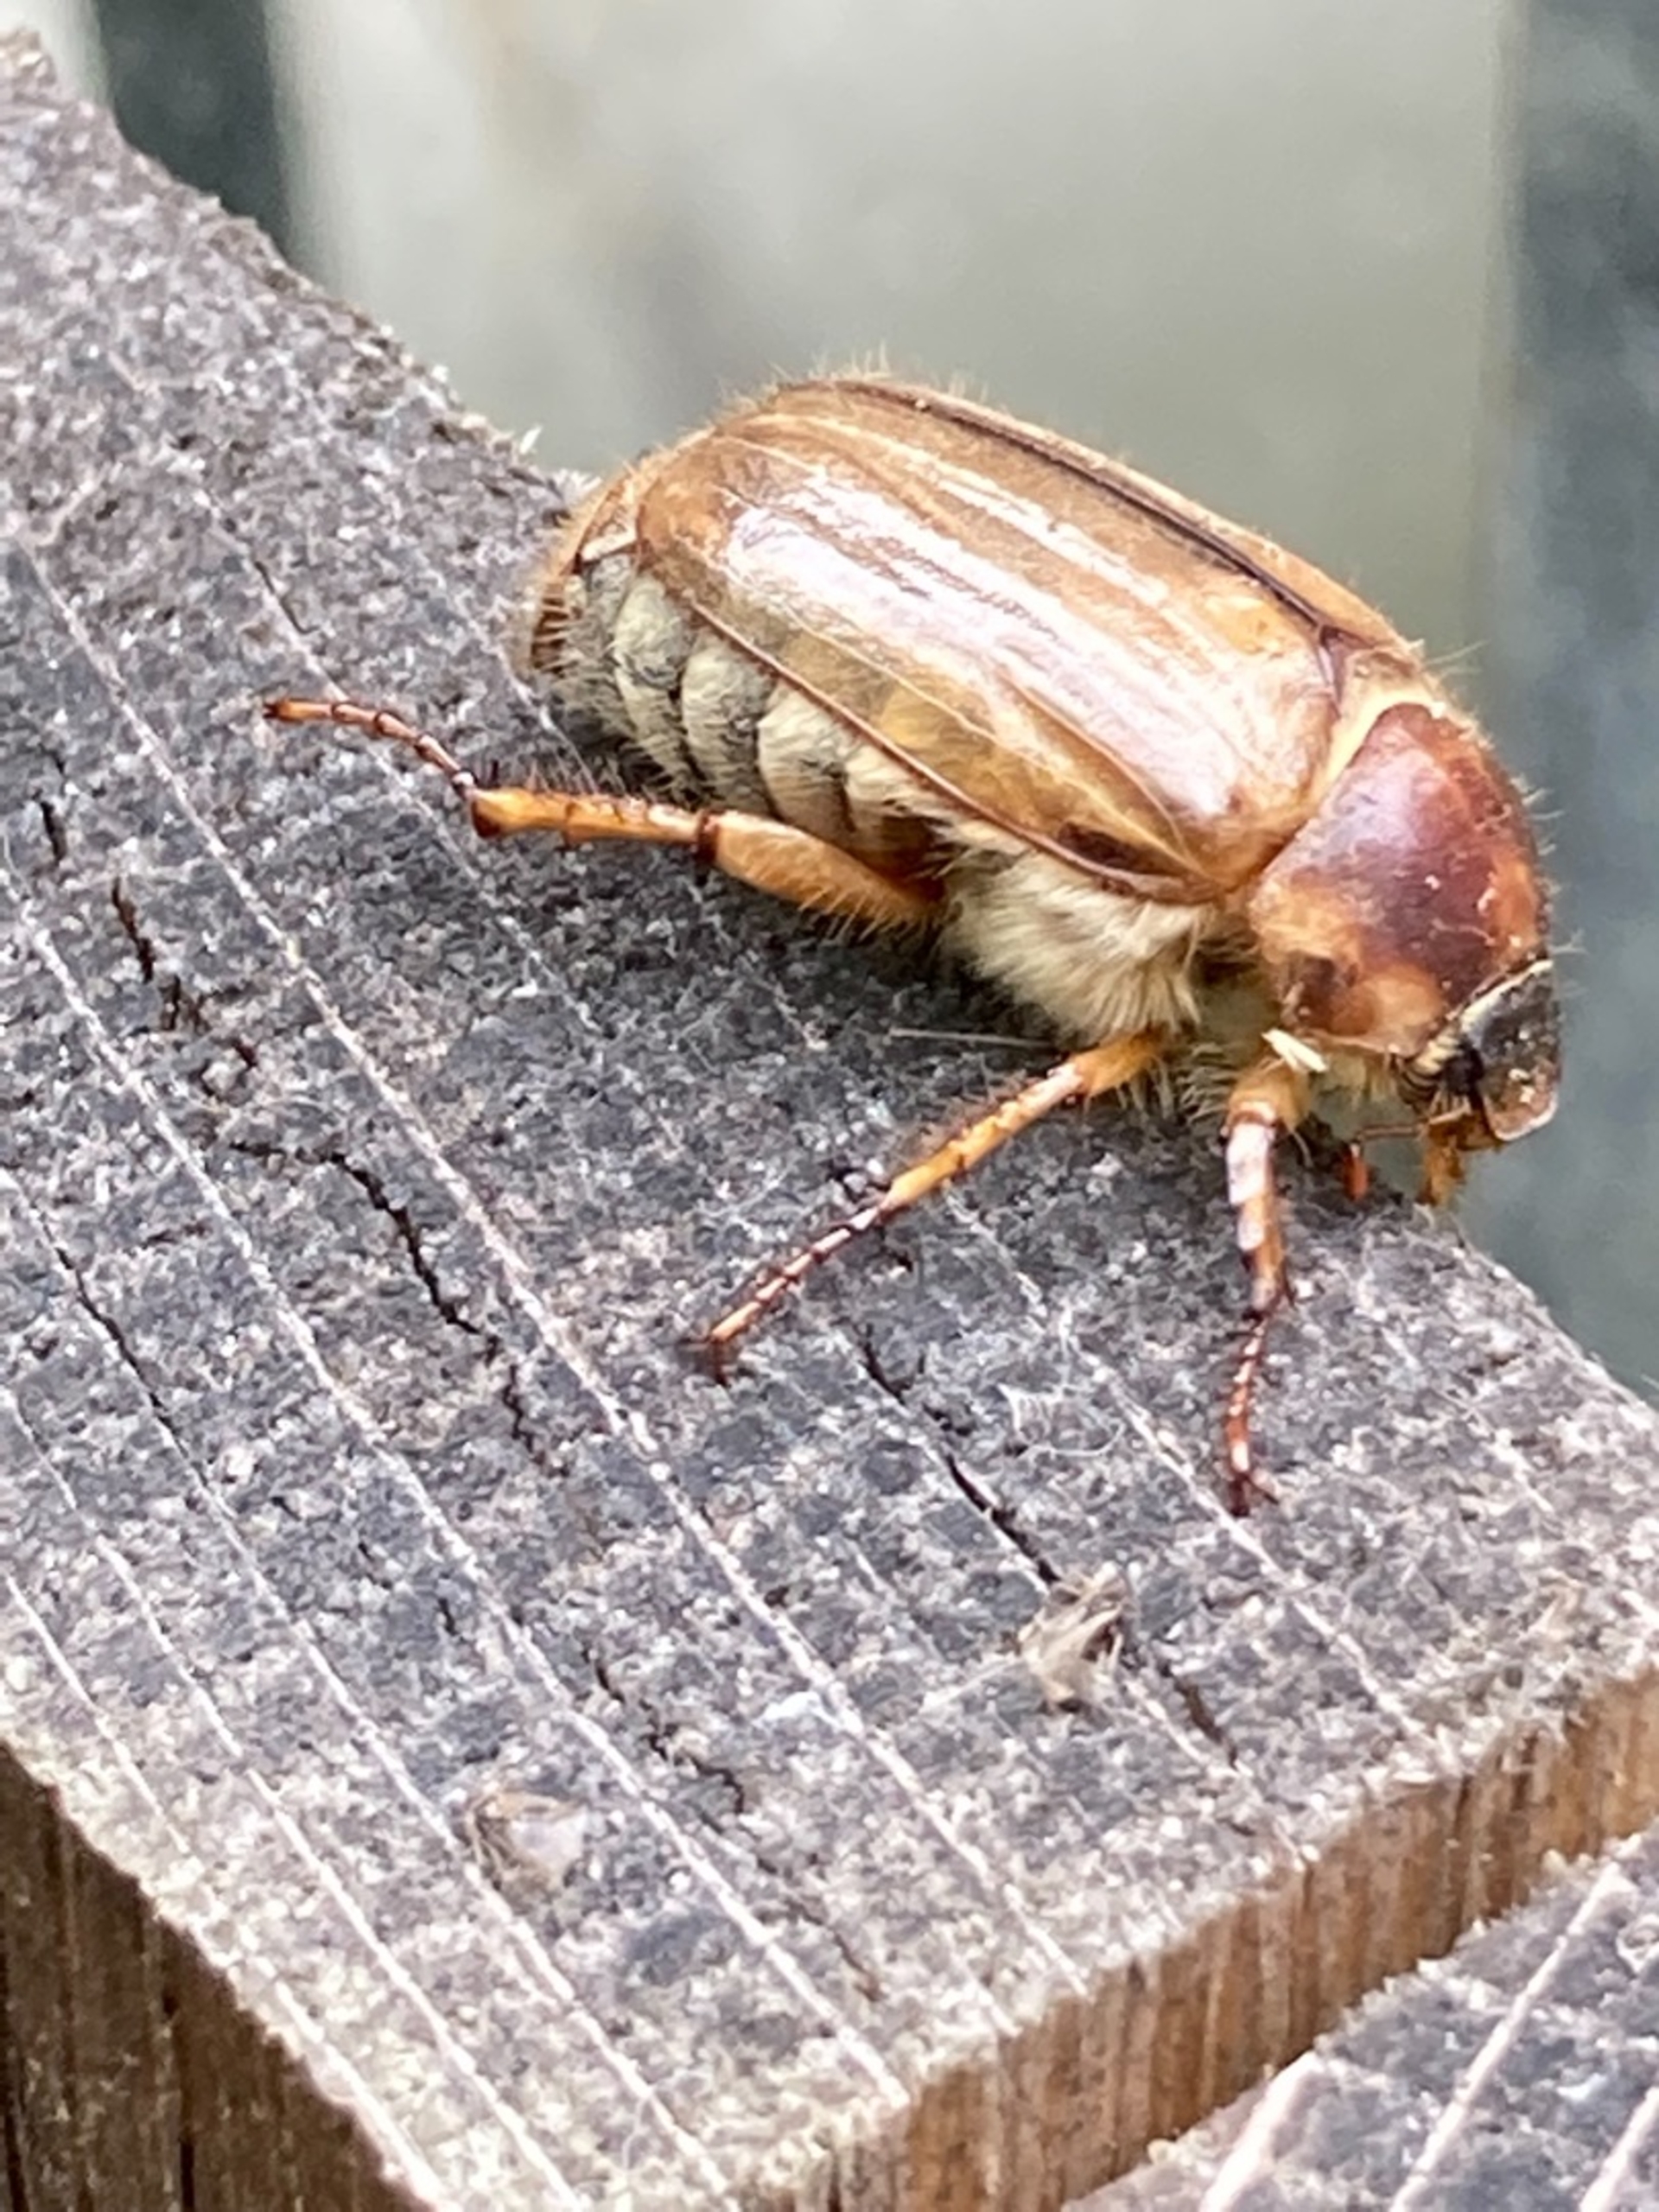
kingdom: Animalia
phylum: Arthropoda
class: Insecta
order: Coleoptera
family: Scarabaeidae
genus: Amphimallon
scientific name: Amphimallon solstitiale
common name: Sankthansoldenborre
